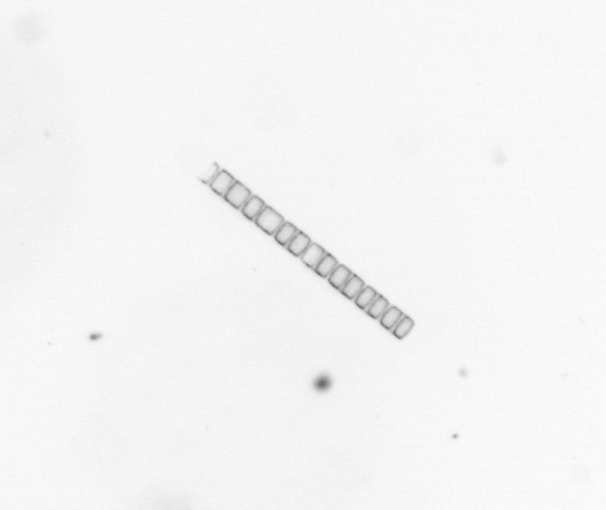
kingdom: Chromista
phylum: Ochrophyta
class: Bacillariophyceae
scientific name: Bacillariophyceae
